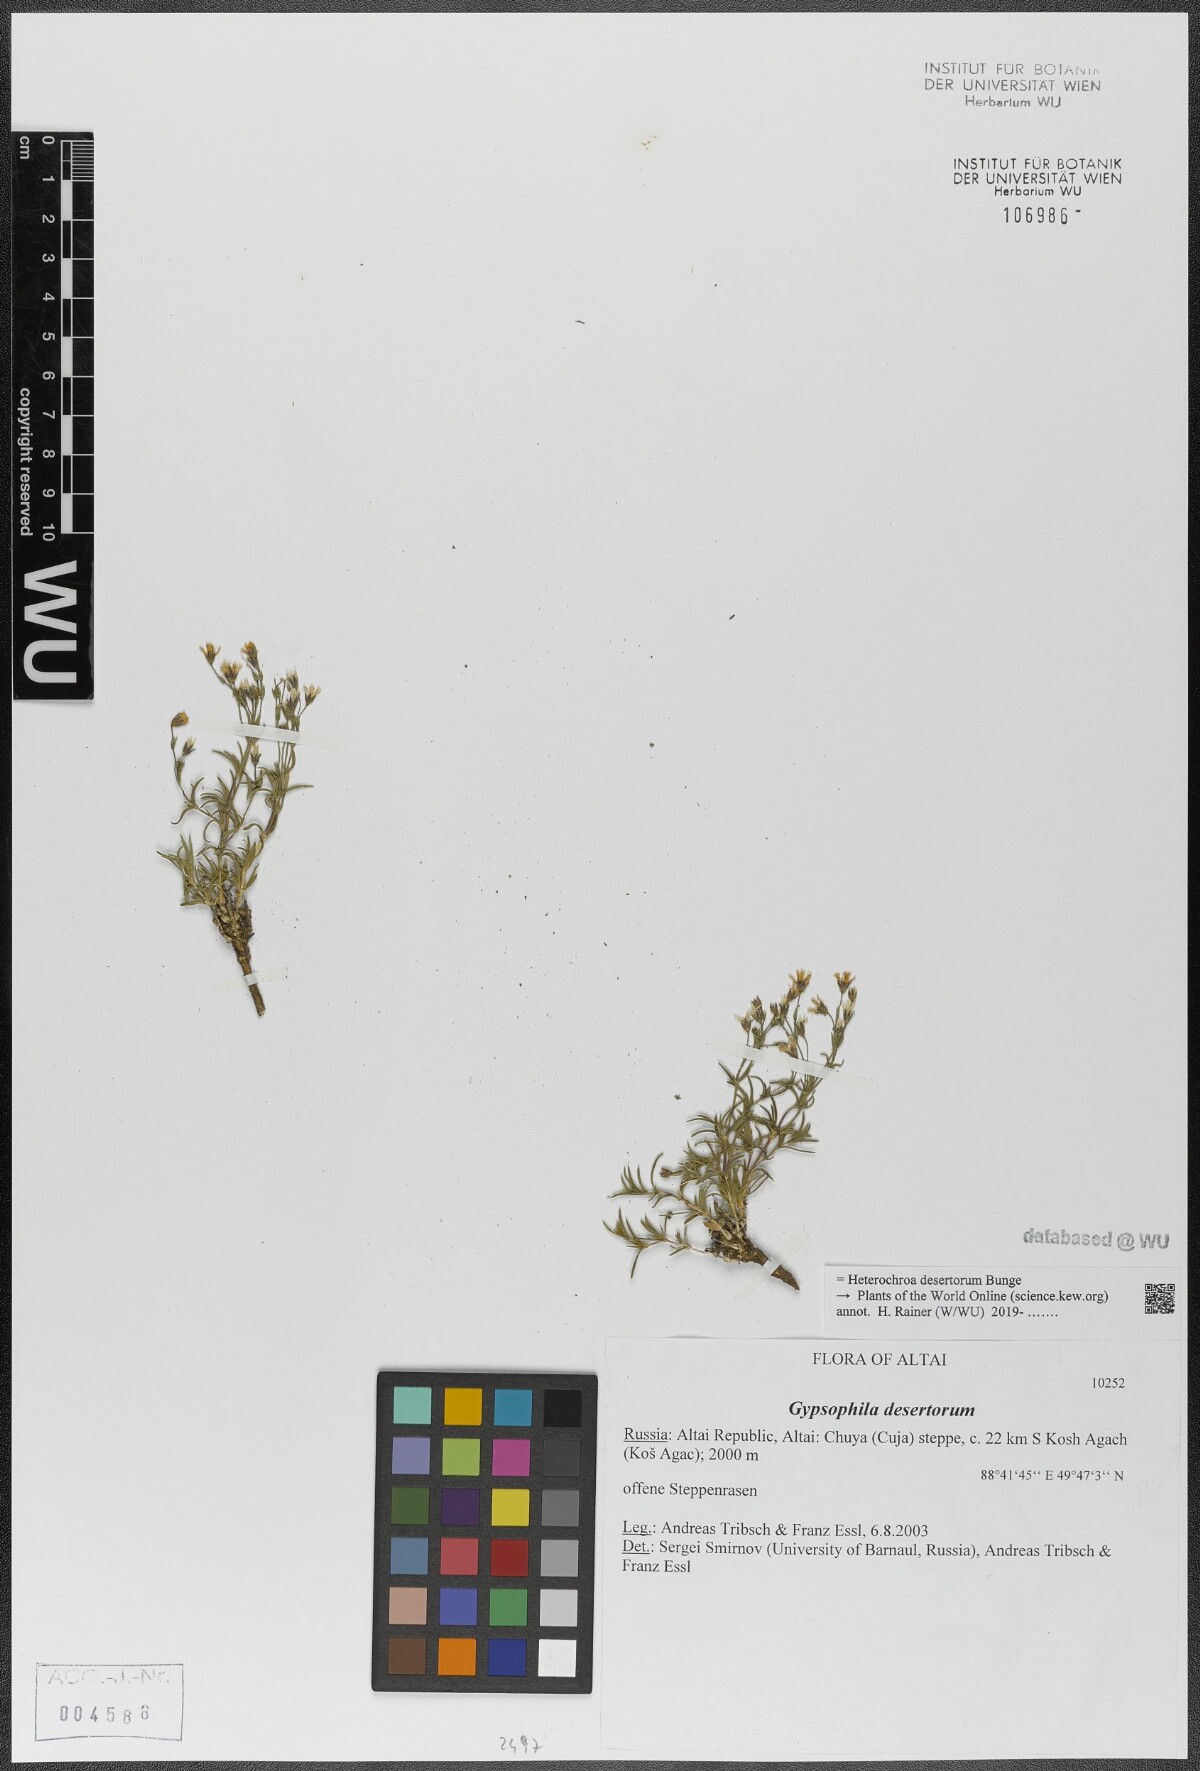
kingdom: Plantae
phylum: Tracheophyta
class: Magnoliopsida
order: Caryophyllales
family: Caryophyllaceae
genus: Heterochroa
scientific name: Heterochroa desertorum
